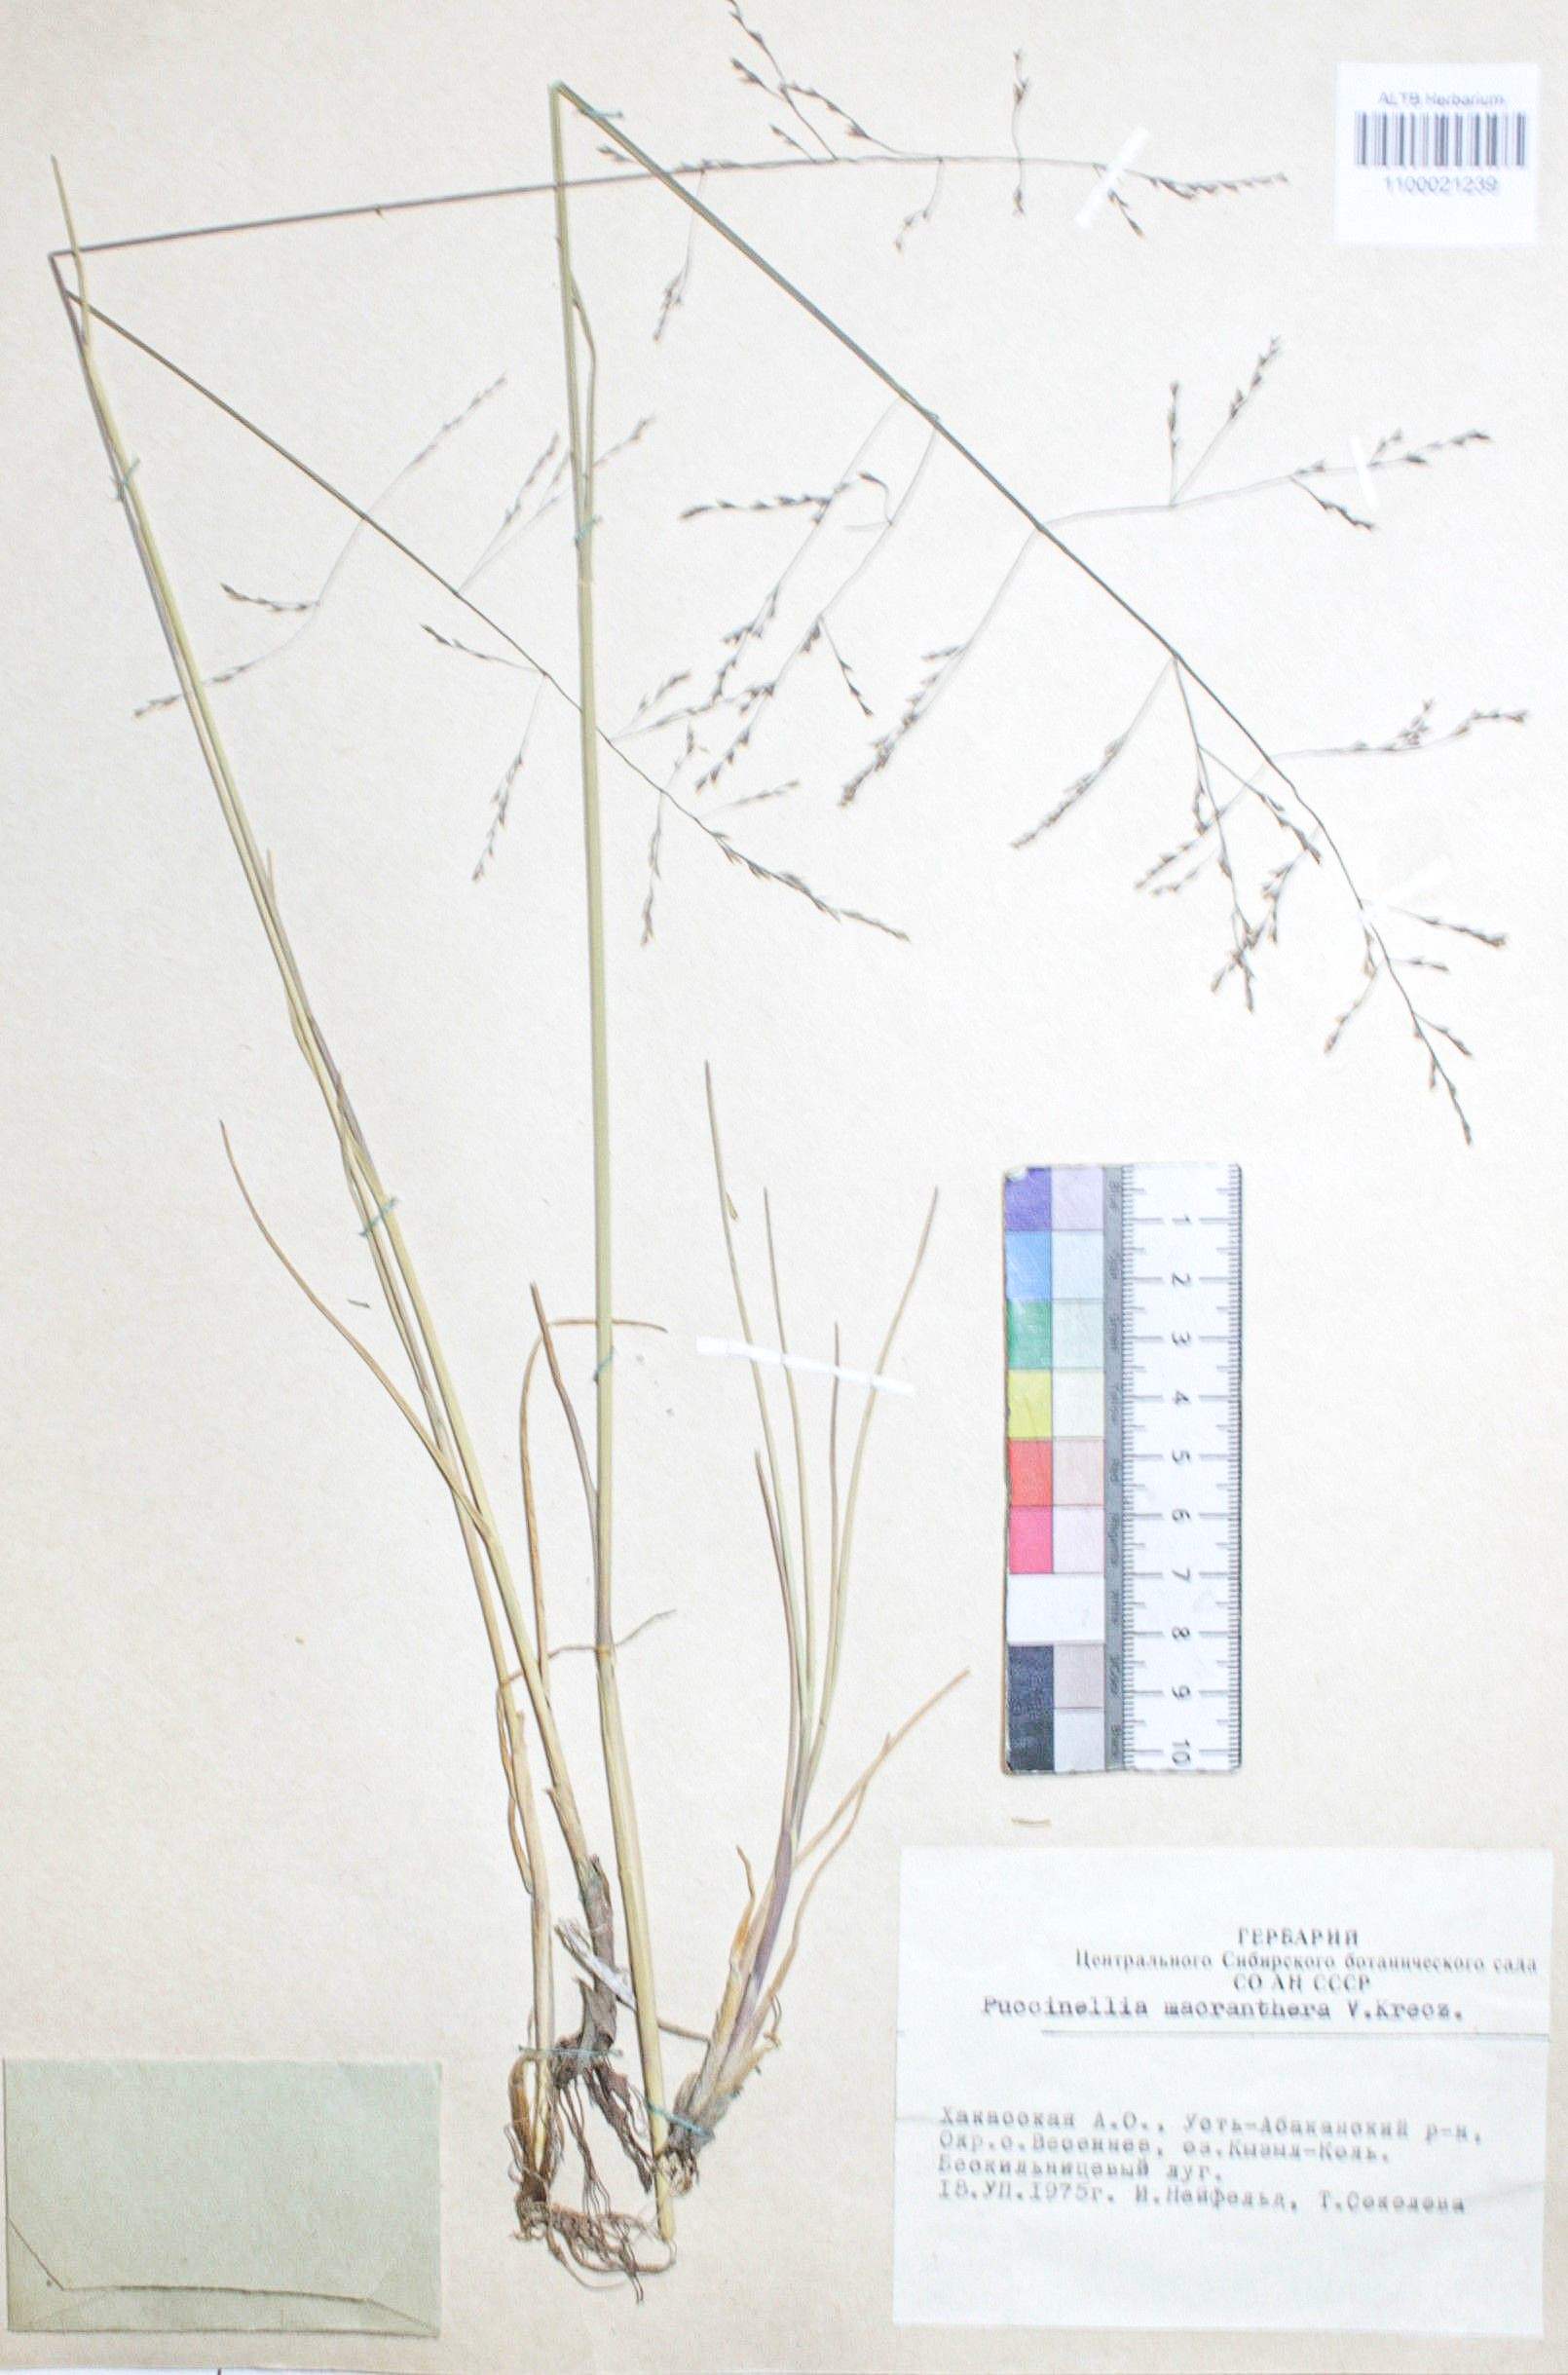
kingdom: Plantae
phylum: Tracheophyta
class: Liliopsida
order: Poales
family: Poaceae
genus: Puccinellia
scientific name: Puccinellia macranthera
